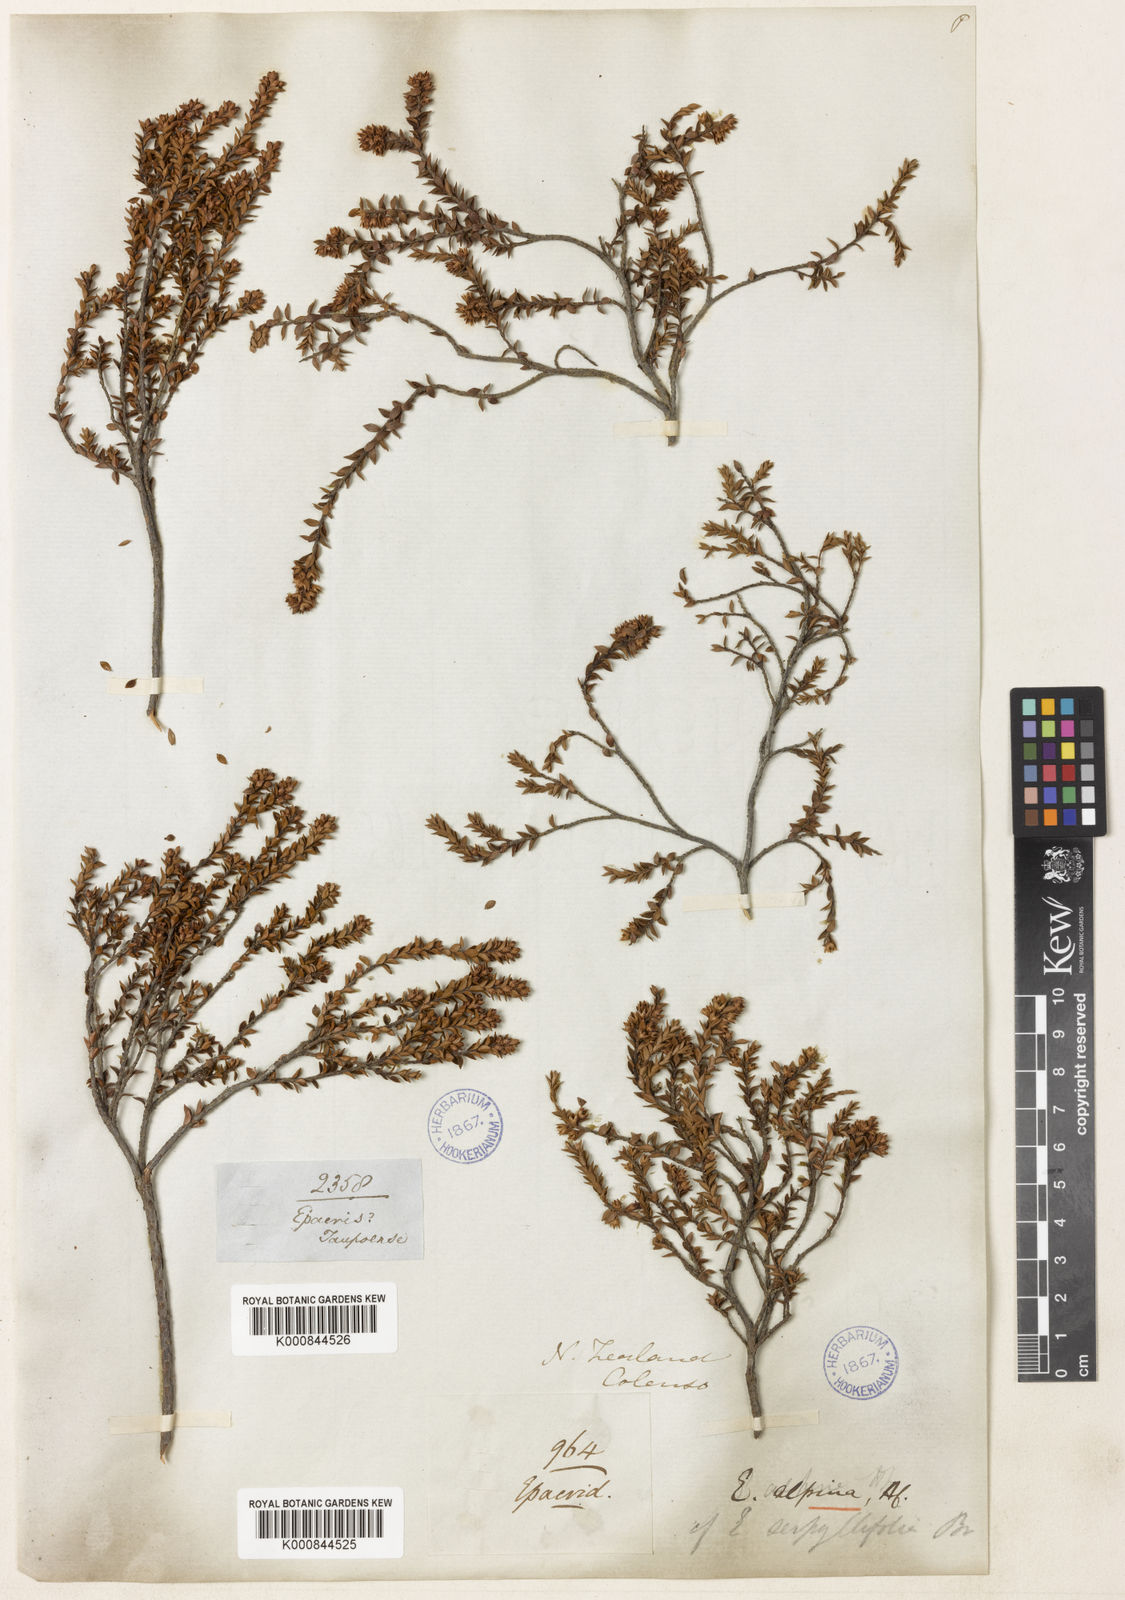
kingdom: Plantae
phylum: Tracheophyta
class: Magnoliopsida
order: Ericales
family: Ericaceae
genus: Epacris
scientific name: Epacris alpina
